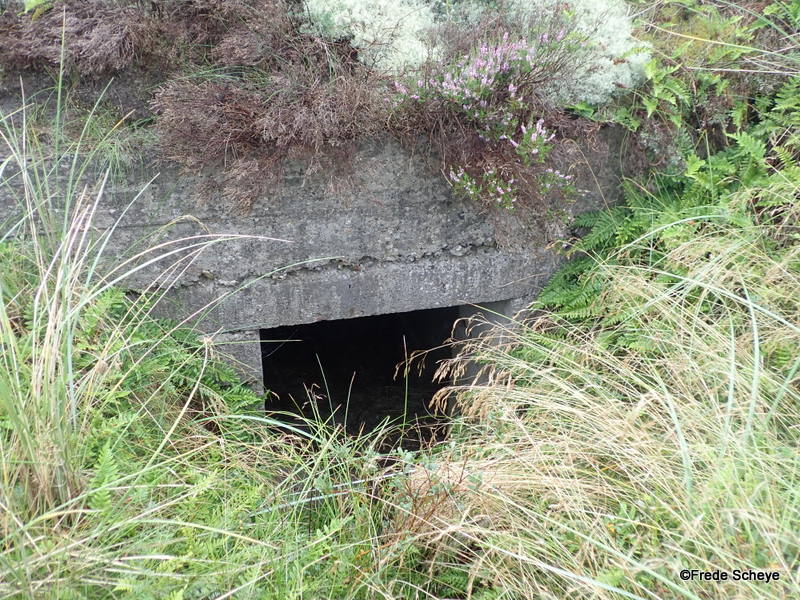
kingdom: Fungi
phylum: Basidiomycota
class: Agaricomycetes
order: Agaricales
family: Agaricaceae
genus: Agaricus
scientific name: Agaricus subfloccosus
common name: randskællet champignon
